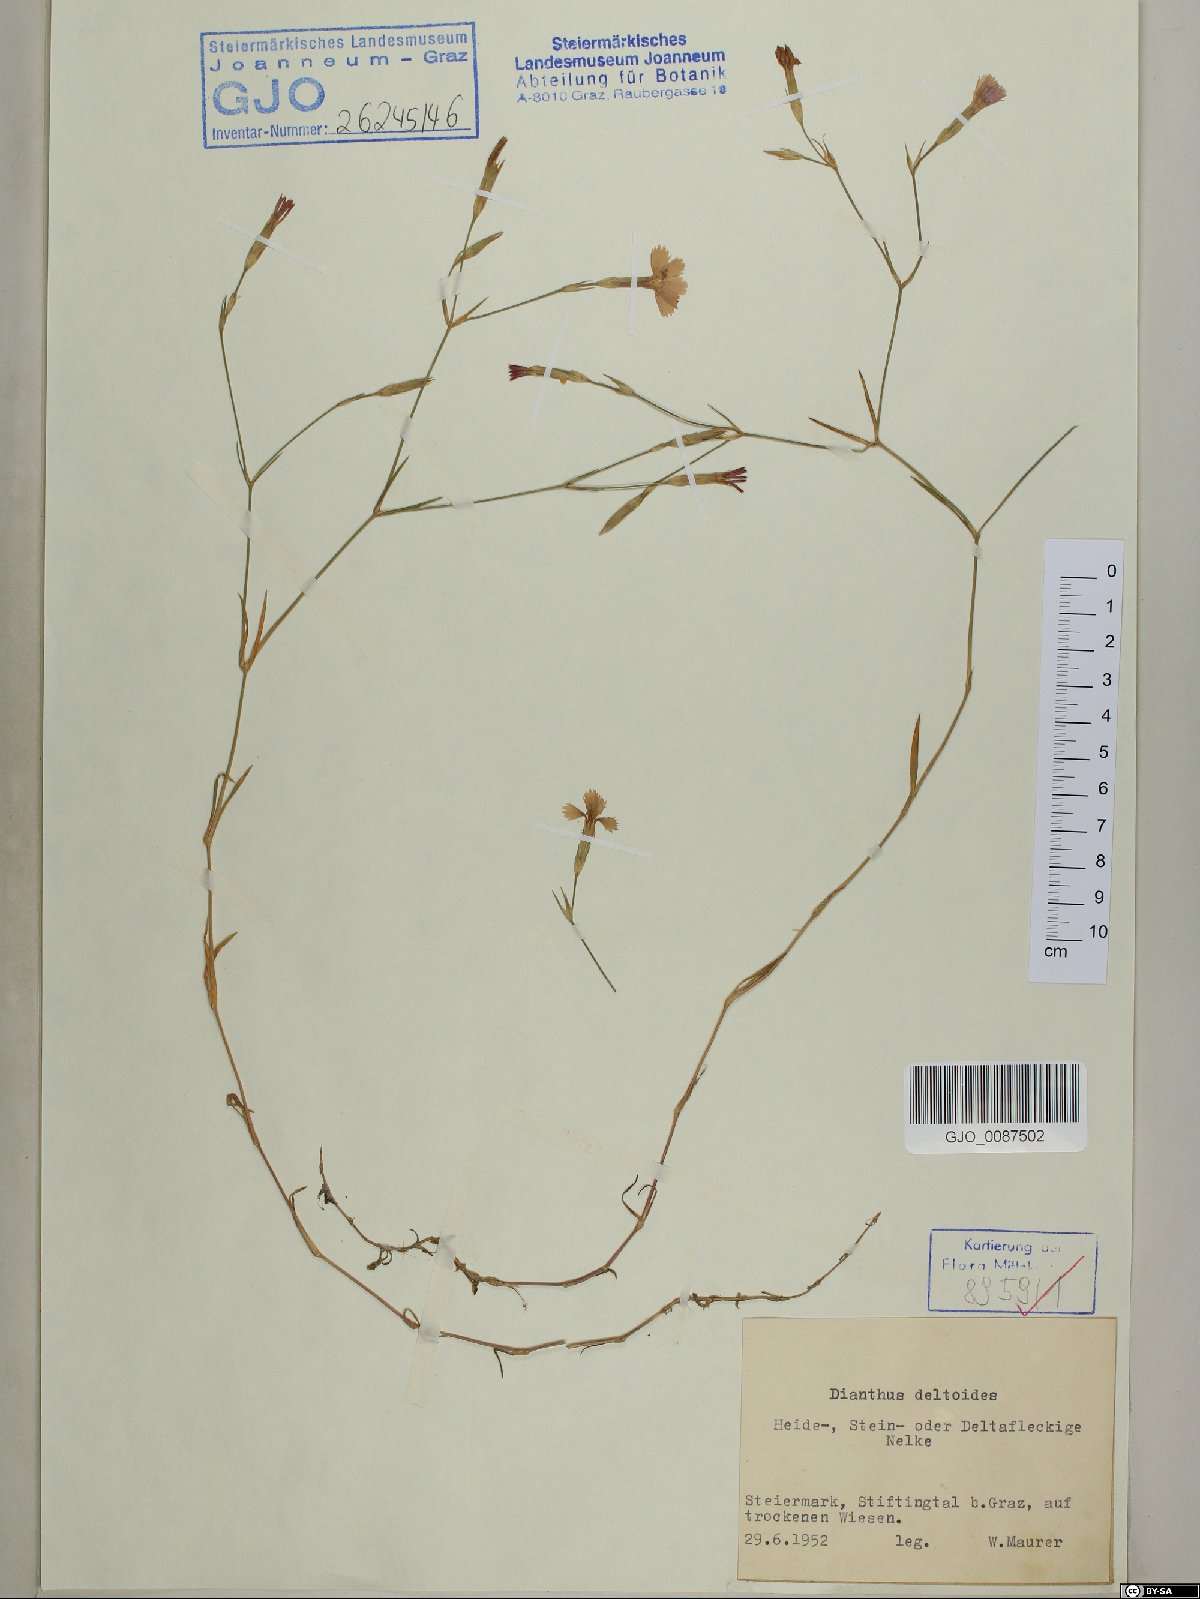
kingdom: Plantae
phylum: Tracheophyta
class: Magnoliopsida
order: Caryophyllales
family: Caryophyllaceae
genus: Dianthus
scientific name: Dianthus deltoides
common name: Maiden pink
